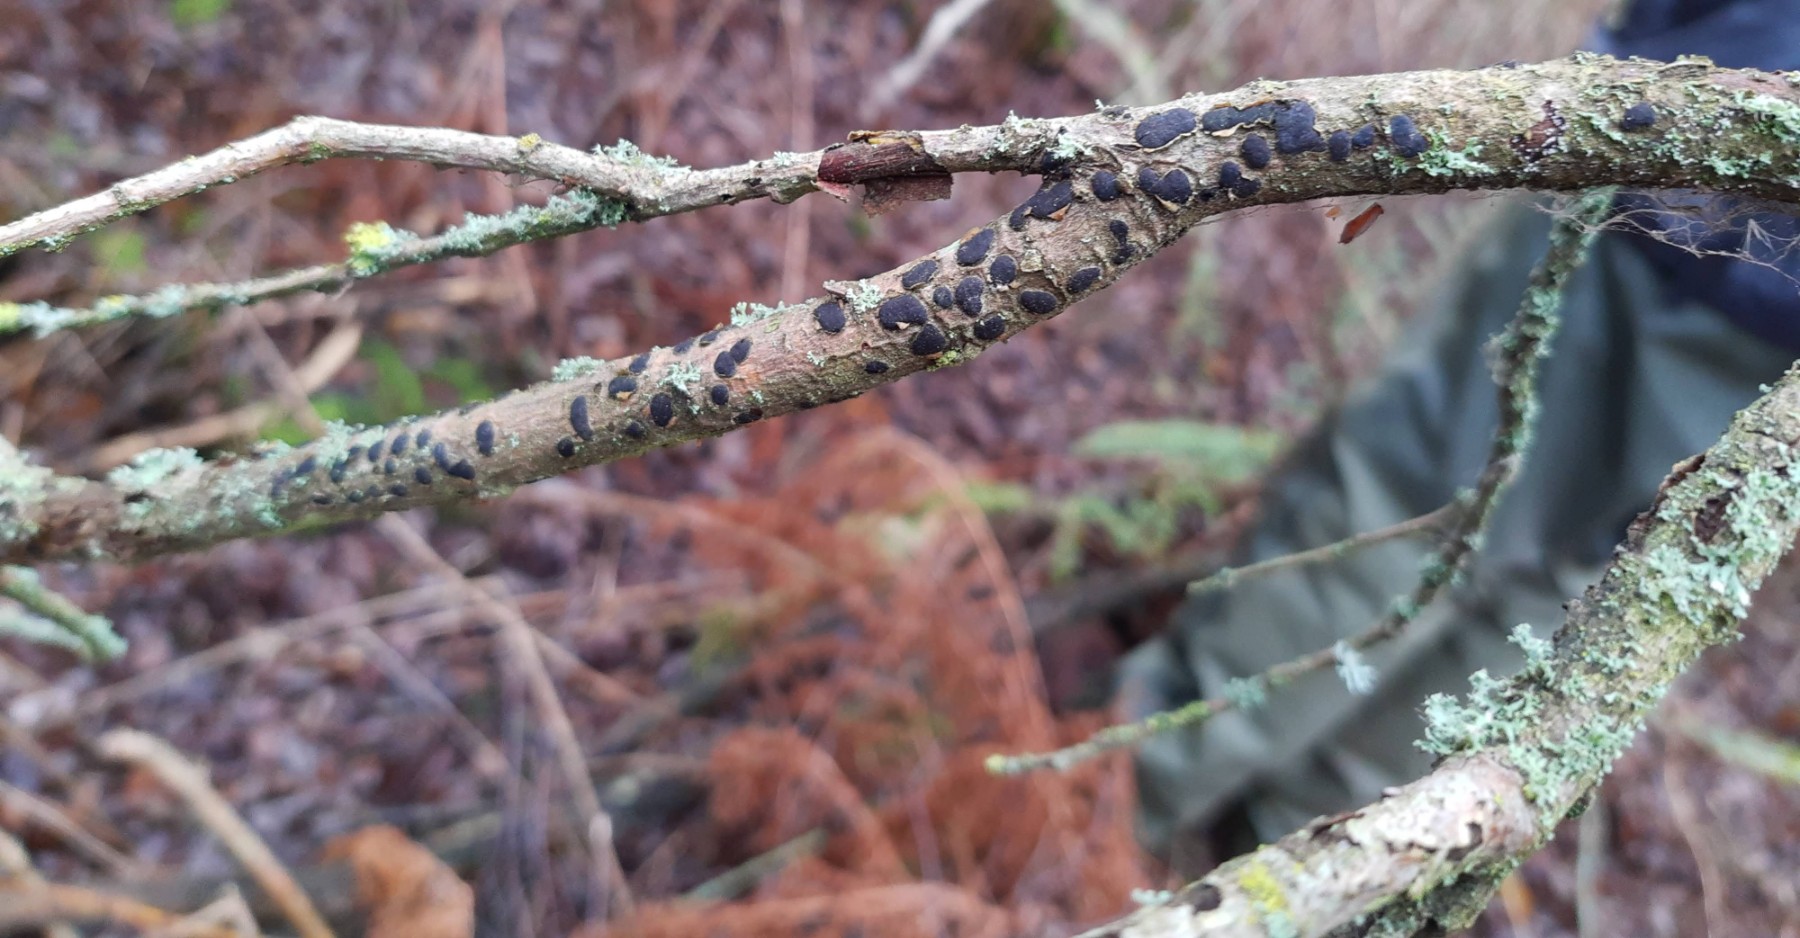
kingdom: Fungi
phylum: Ascomycota
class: Sordariomycetes
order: Xylariales
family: Diatrypaceae
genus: Diatrype
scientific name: Diatrype bullata
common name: pile-kulskorpe
